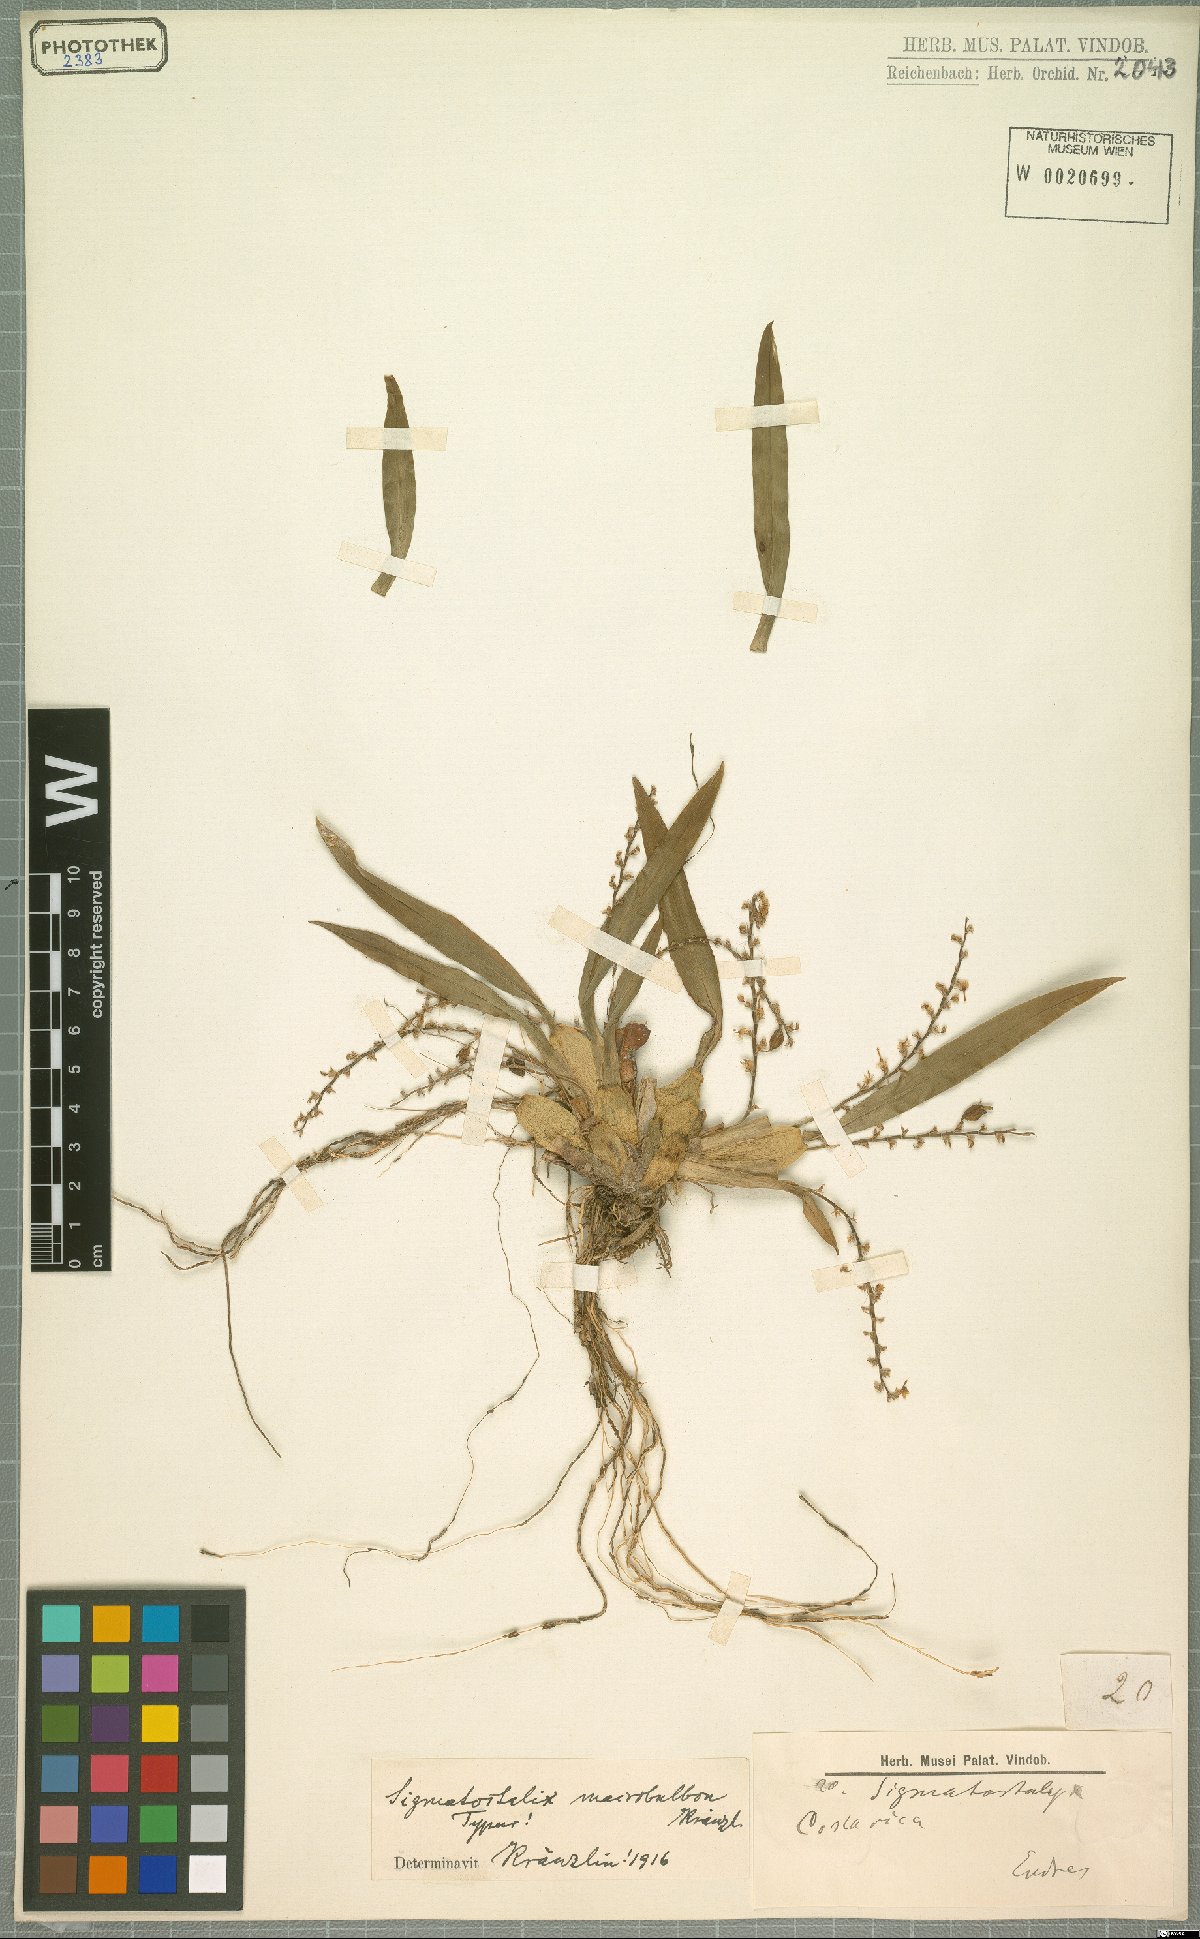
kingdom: Plantae
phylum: Tracheophyta
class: Liliopsida
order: Asparagales
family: Orchidaceae
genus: Oncidium
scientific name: Oncidium macrobulbon
